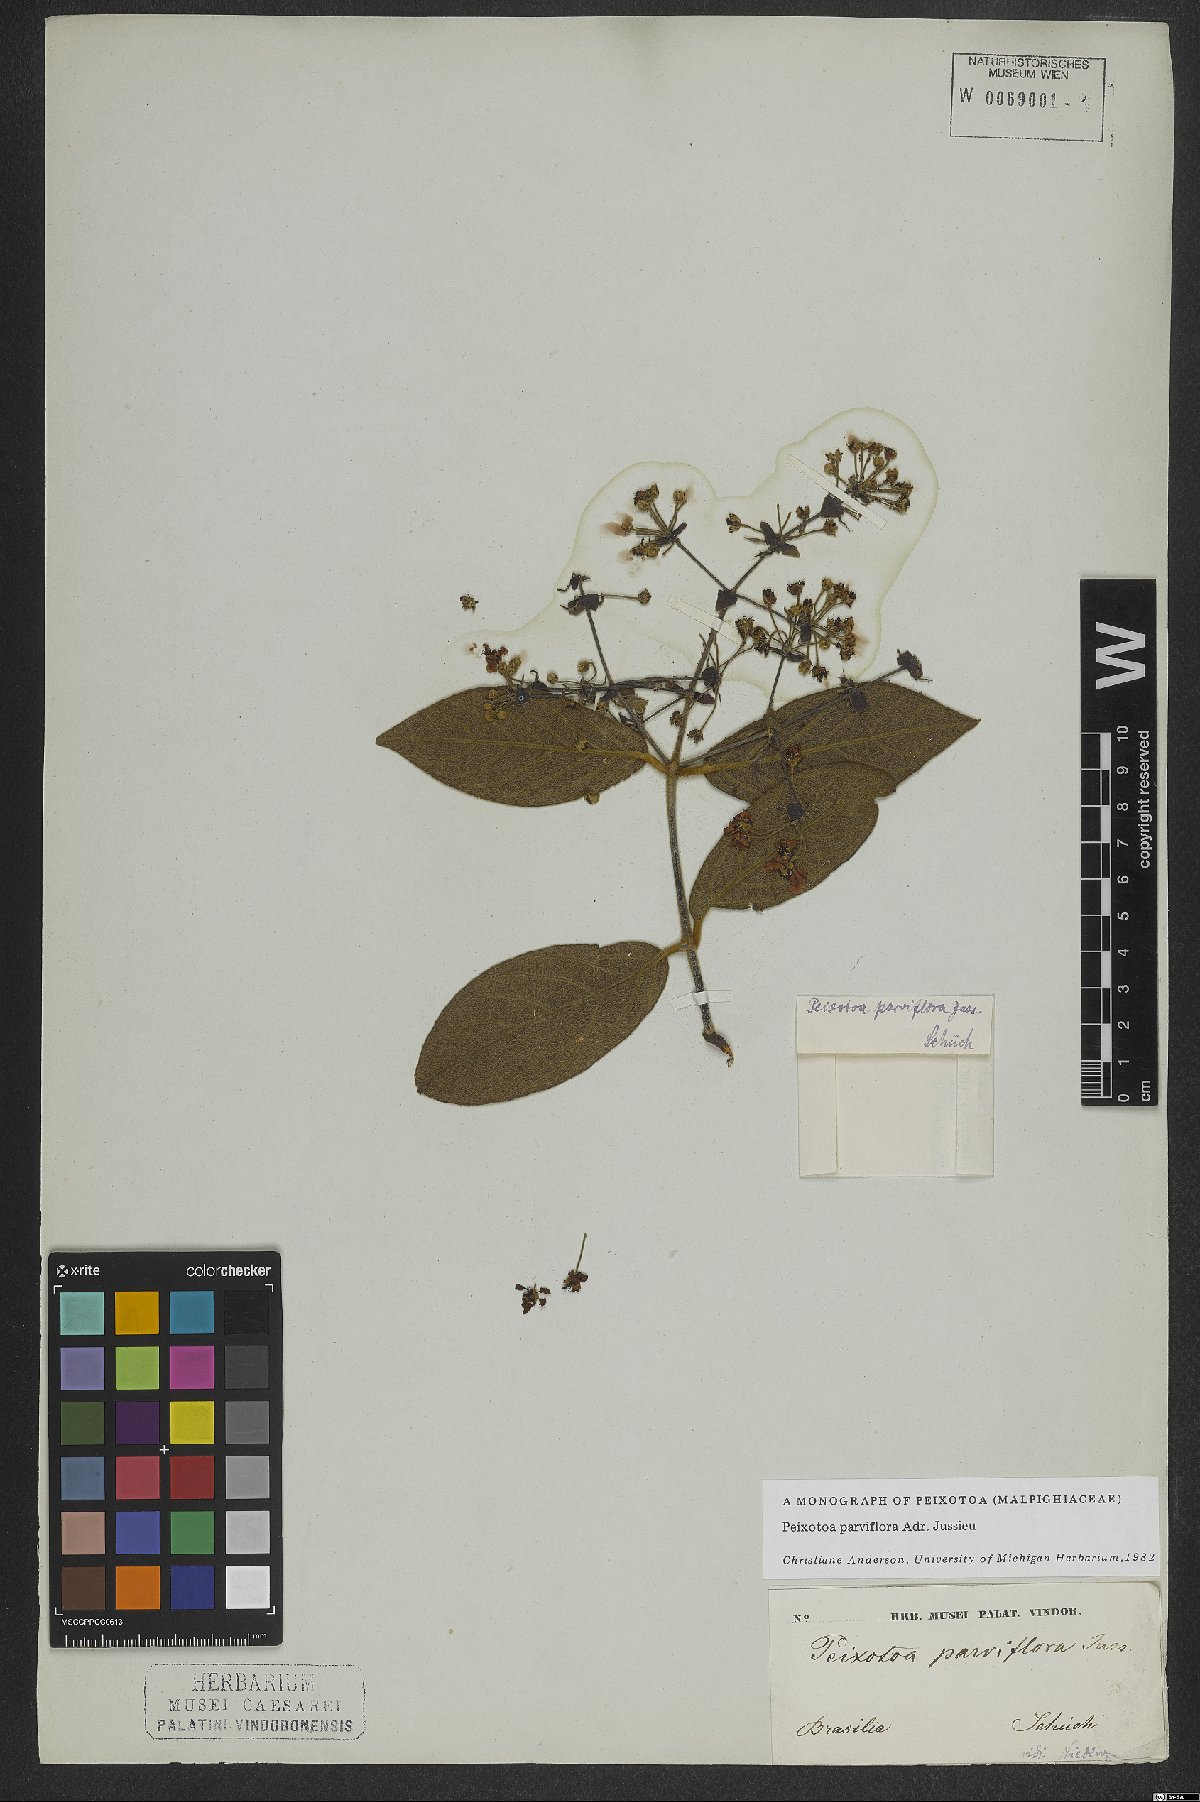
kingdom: Plantae
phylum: Tracheophyta
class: Magnoliopsida
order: Malpighiales
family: Malpighiaceae
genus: Peixotoa
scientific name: Peixotoa parviflora
